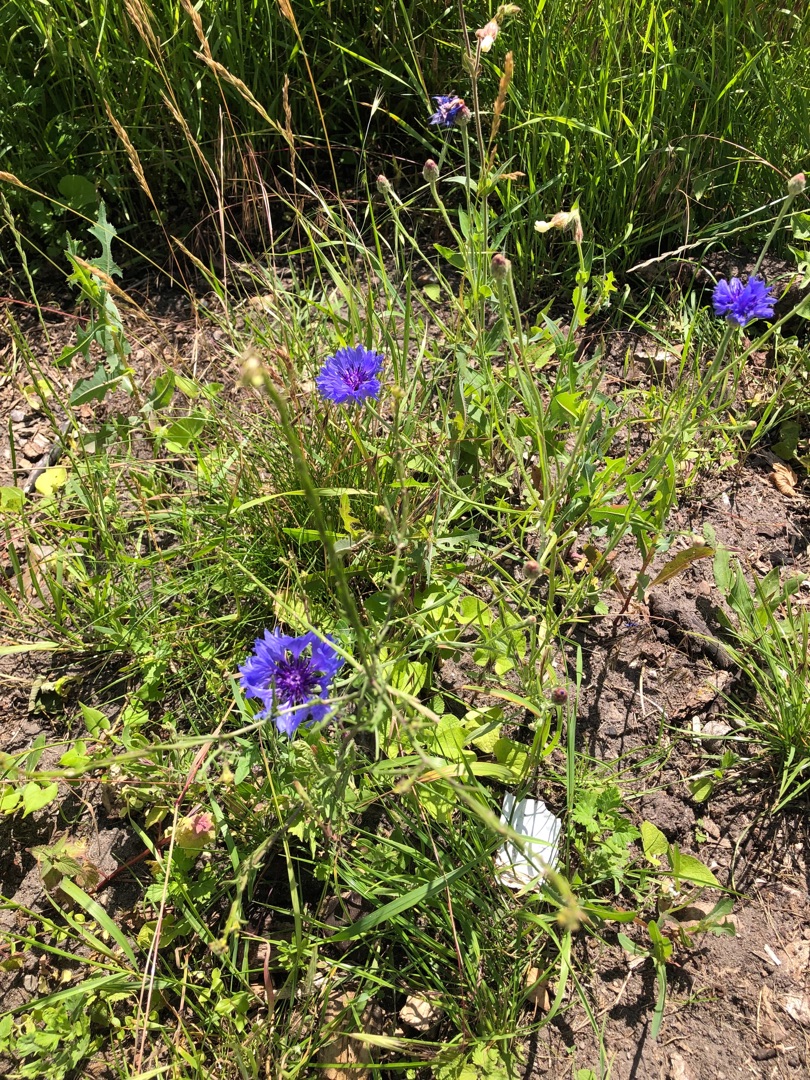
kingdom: Plantae
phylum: Tracheophyta
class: Magnoliopsida
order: Asterales
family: Asteraceae
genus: Centaurea
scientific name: Centaurea cyanus
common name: Kornblomst
